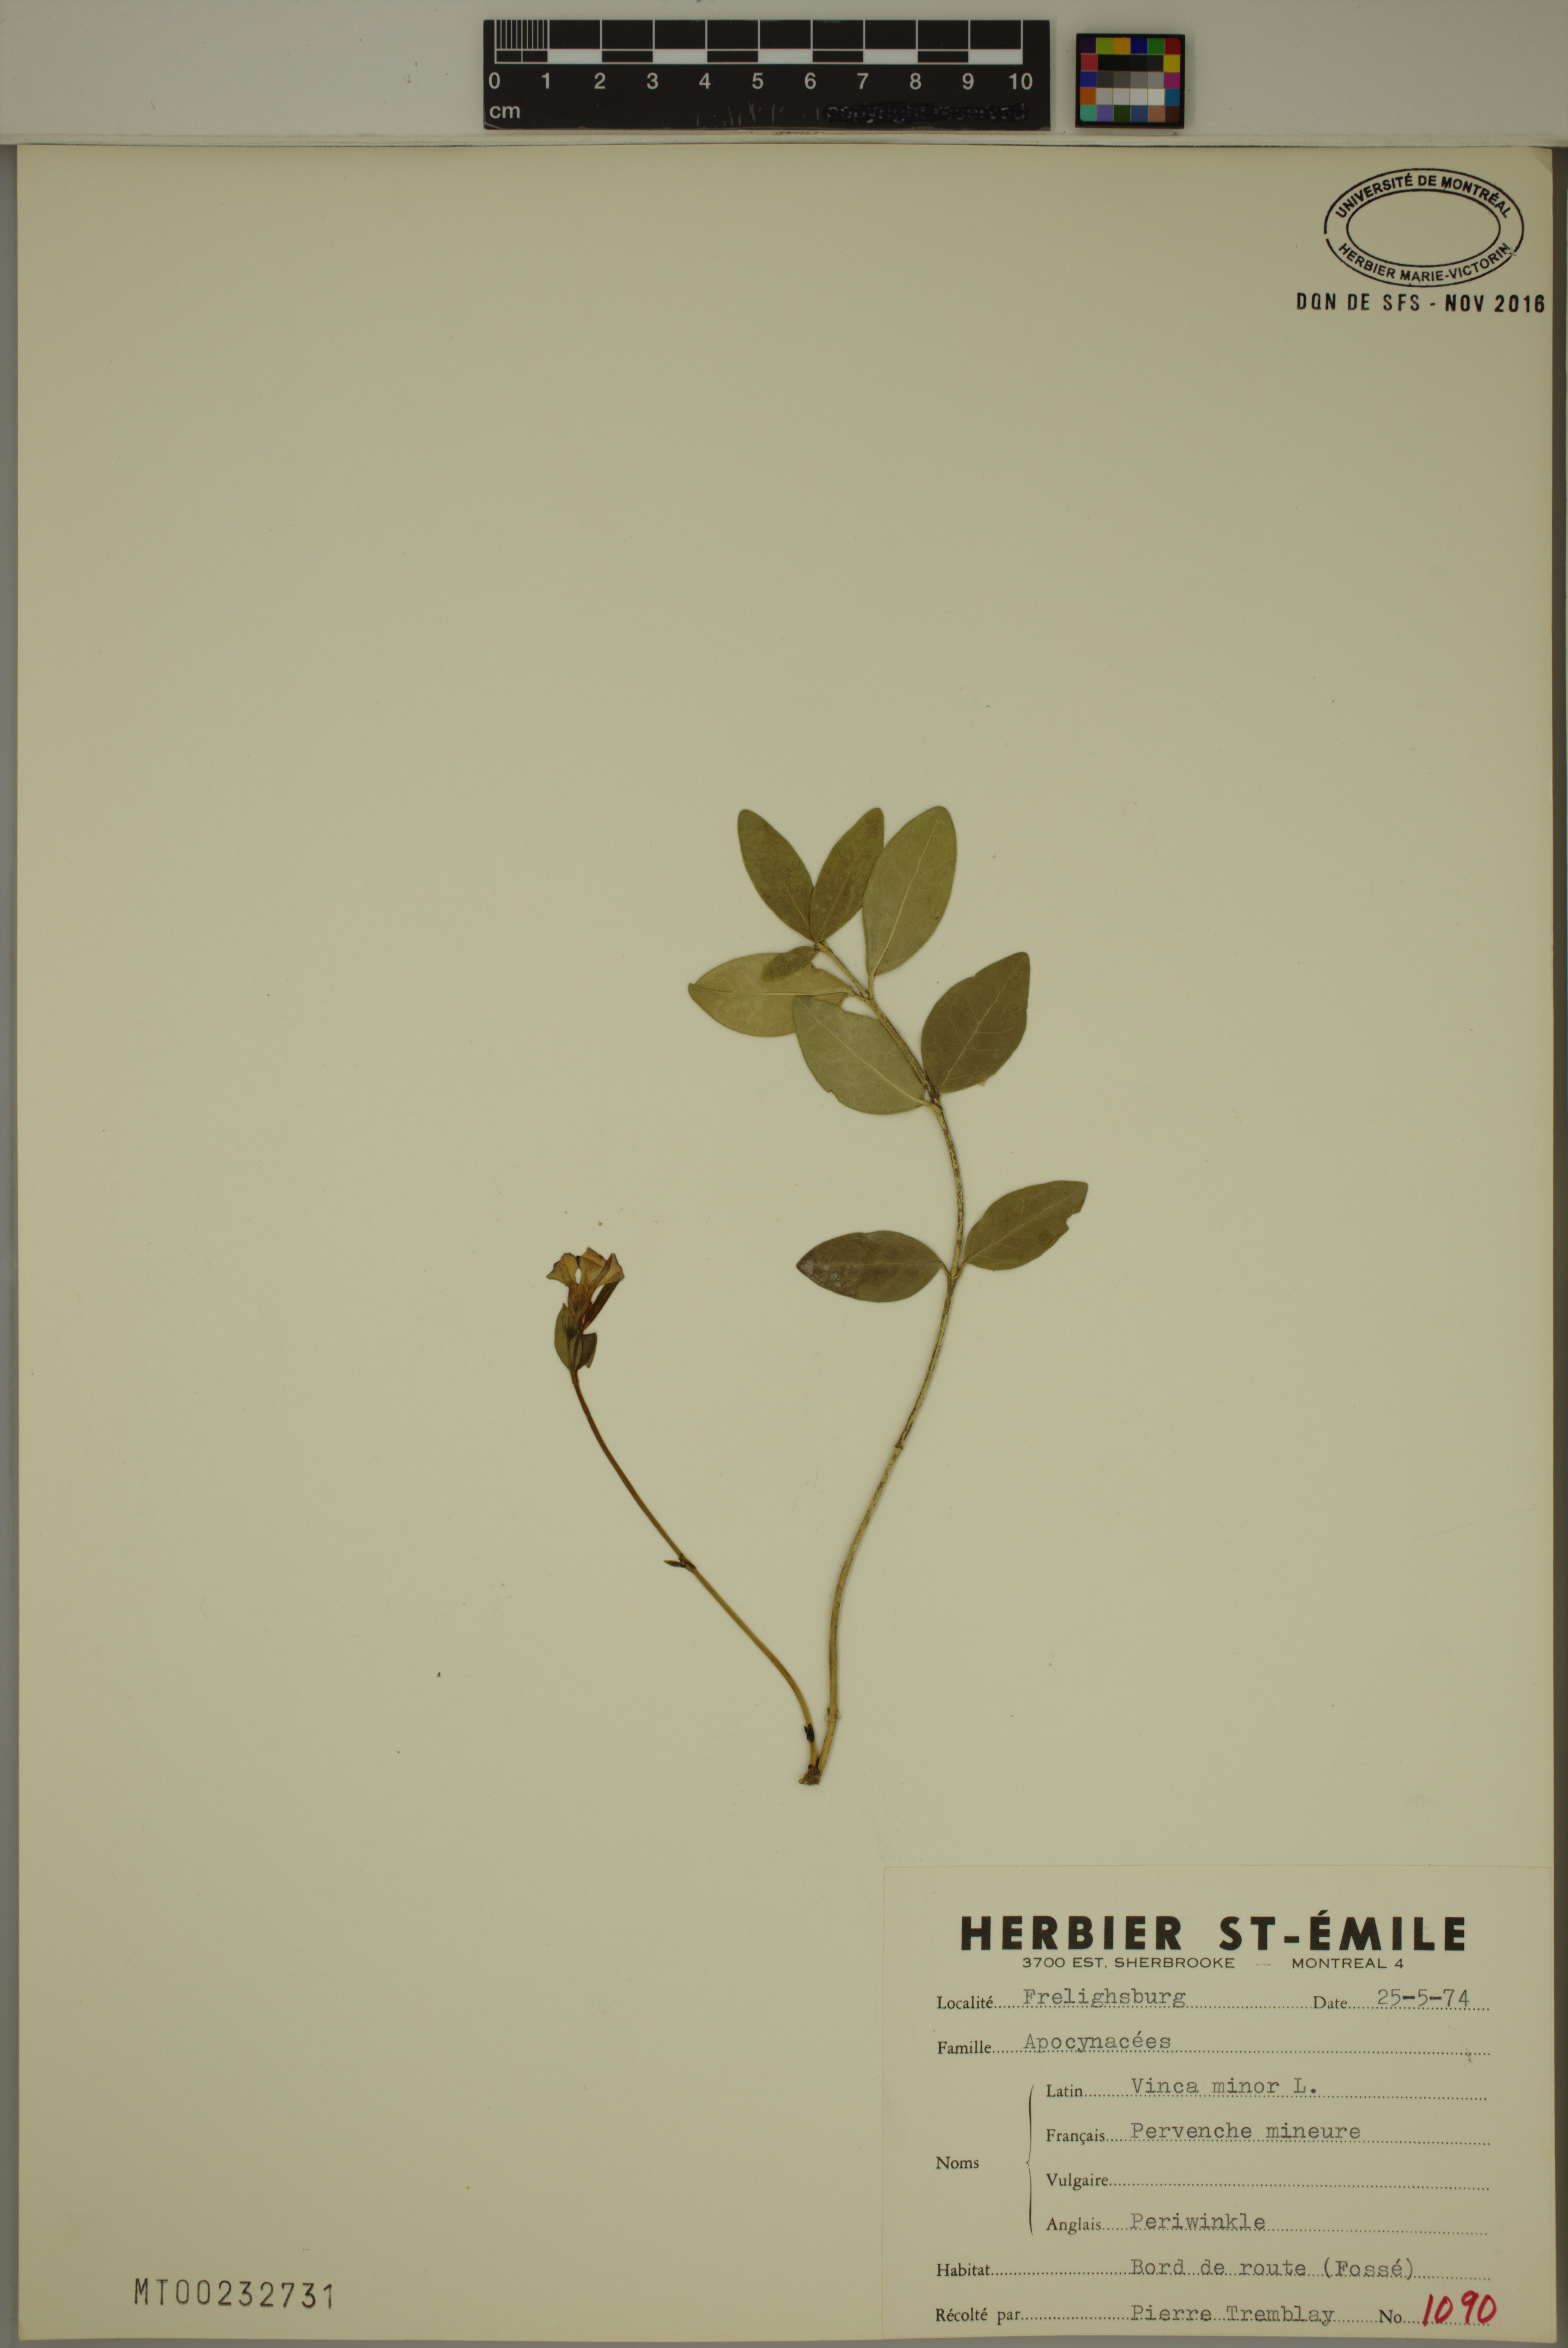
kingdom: Plantae
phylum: Tracheophyta
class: Magnoliopsida
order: Gentianales
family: Apocynaceae
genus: Vinca
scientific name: Vinca minor
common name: Lesser periwinkle
